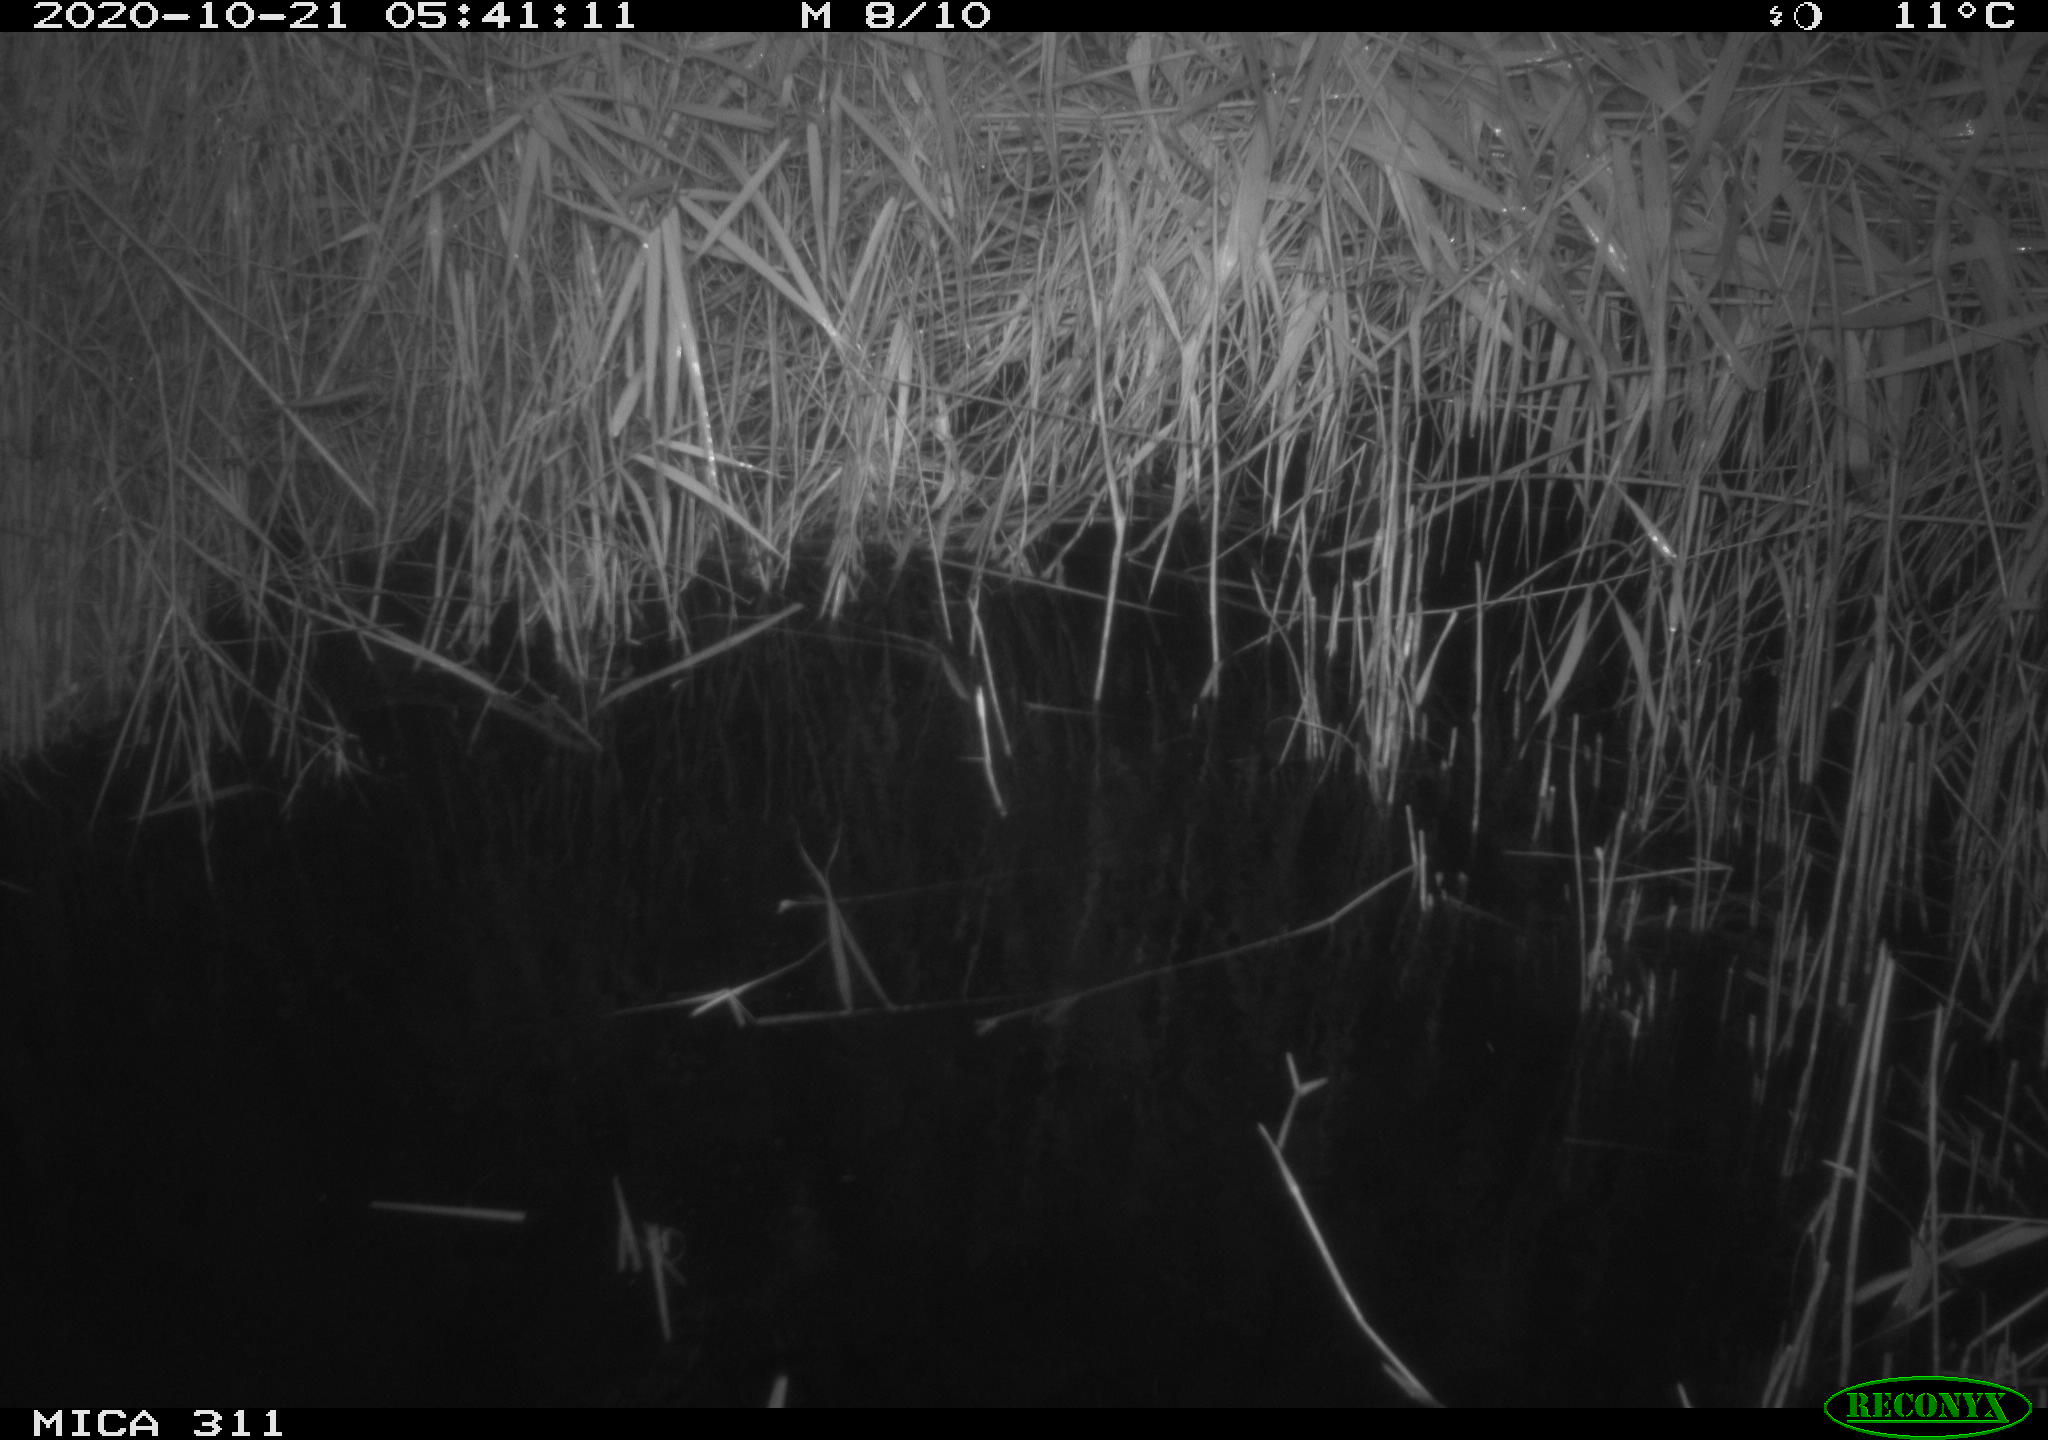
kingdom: Animalia
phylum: Chordata
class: Mammalia
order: Rodentia
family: Muridae
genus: Rattus
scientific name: Rattus norvegicus
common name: Brown rat
